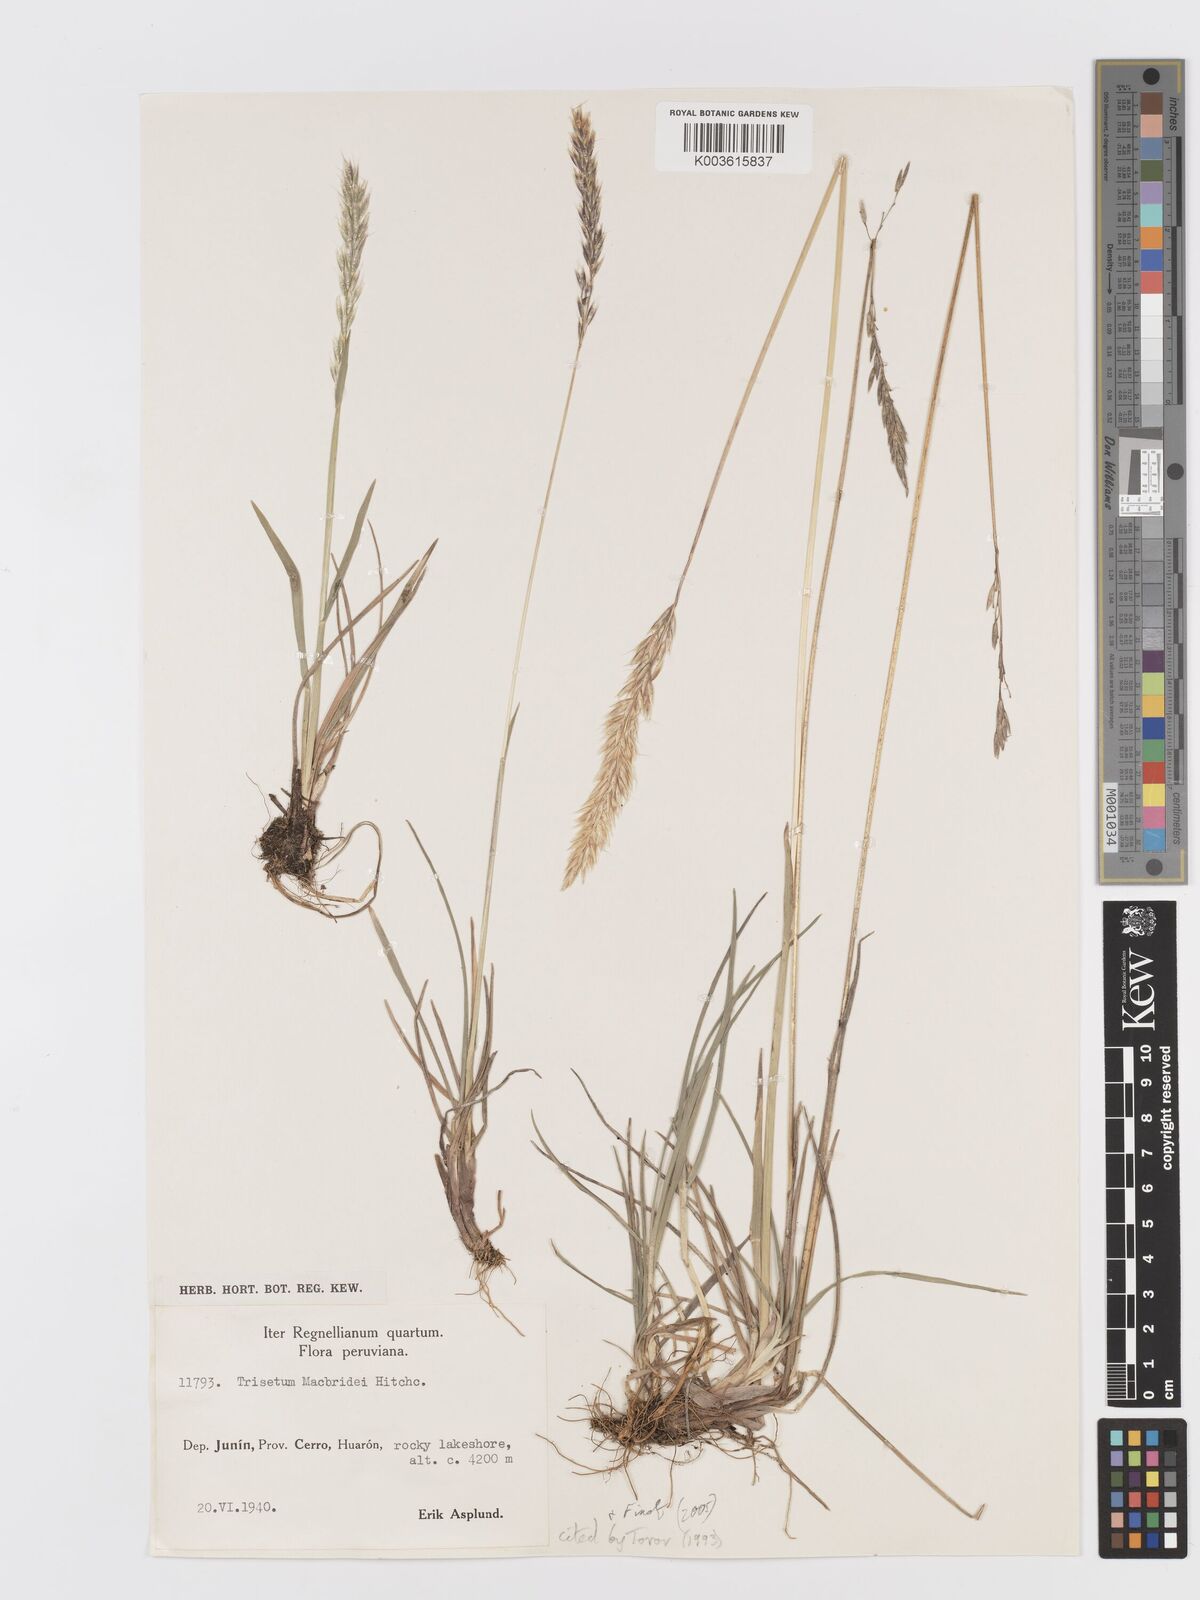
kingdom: Plantae
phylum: Tracheophyta
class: Liliopsida
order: Poales
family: Poaceae
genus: Trisetum
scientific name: Trisetum macbridei
